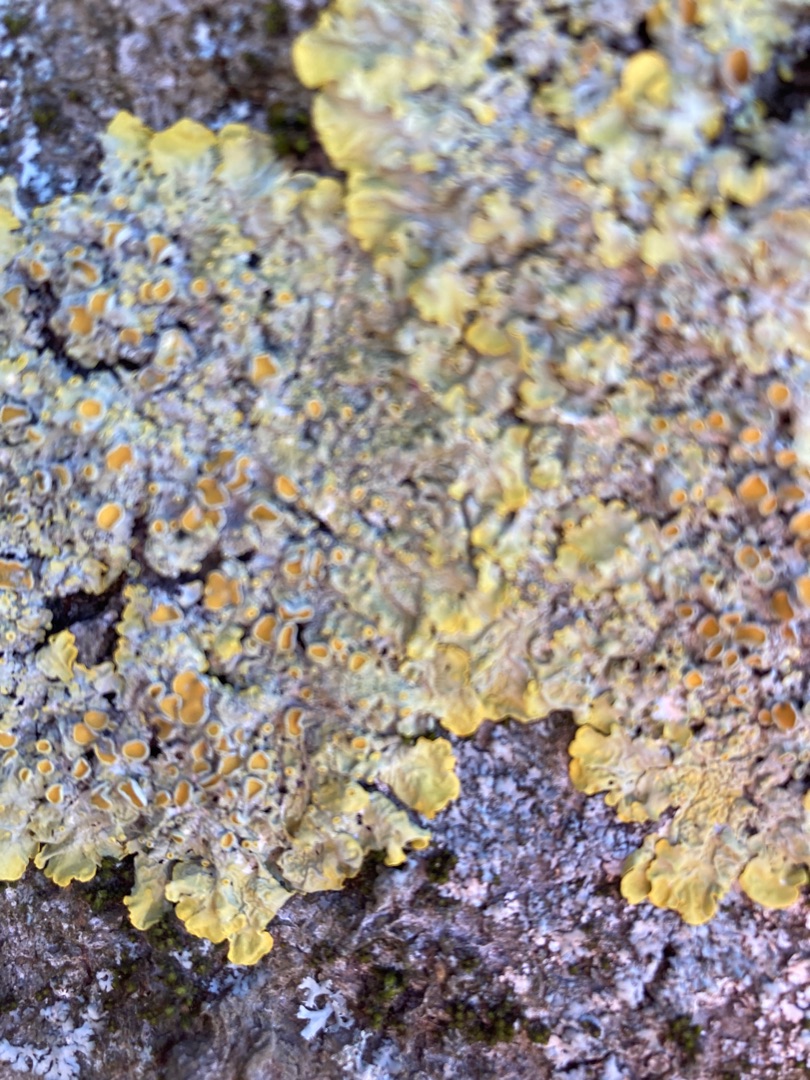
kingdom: Fungi
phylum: Ascomycota
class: Lecanoromycetes
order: Teloschistales
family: Teloschistaceae
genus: Xanthoria
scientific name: Xanthoria parietina
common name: Almindelig væggelav
